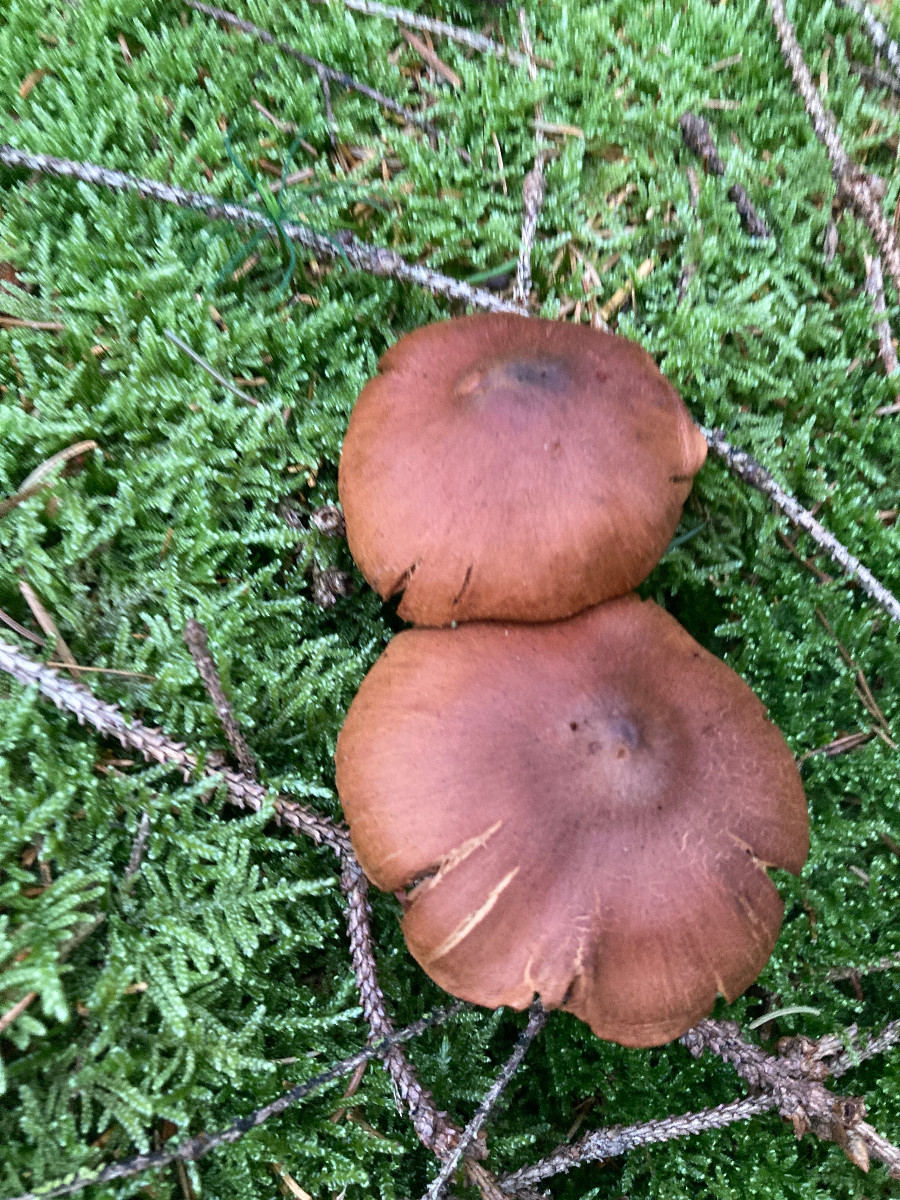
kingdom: Fungi
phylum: Basidiomycota
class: Agaricomycetes
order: Agaricales
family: Cortinariaceae
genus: Cortinarius
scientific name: Cortinarius rubellus
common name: puklet gift-slørhat
